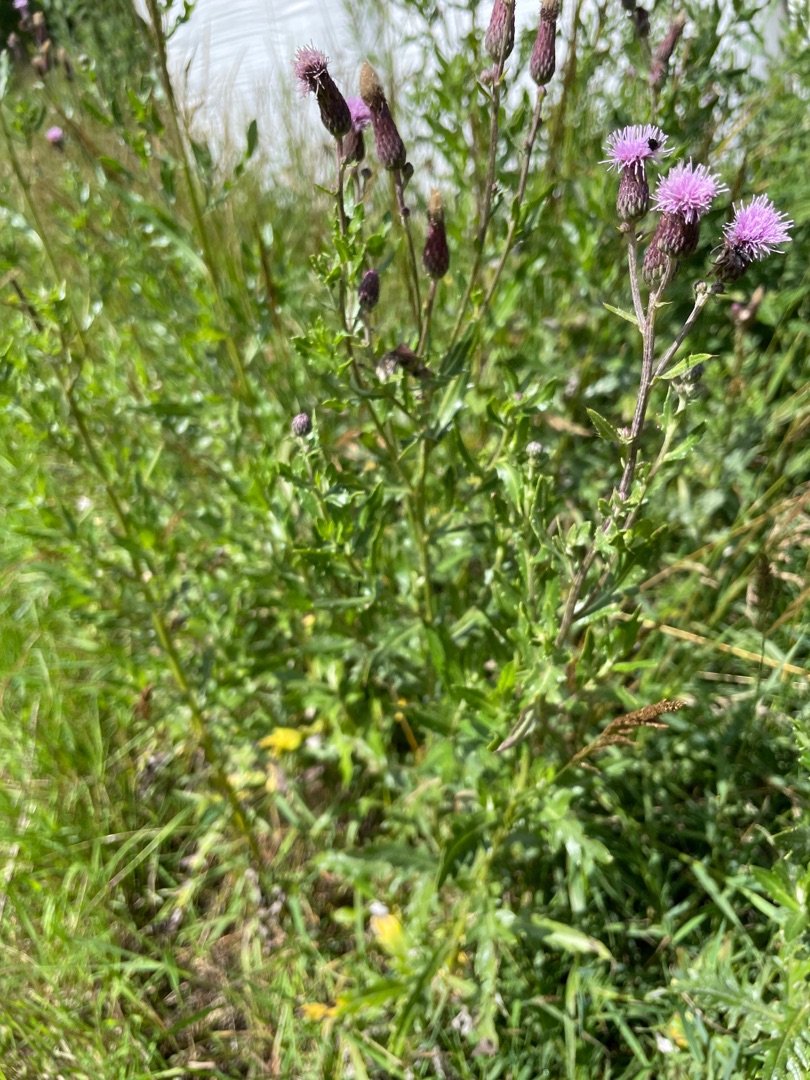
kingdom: Plantae
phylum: Tracheophyta
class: Magnoliopsida
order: Asterales
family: Asteraceae
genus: Cirsium
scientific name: Cirsium arvense
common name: Ager-tidsel
